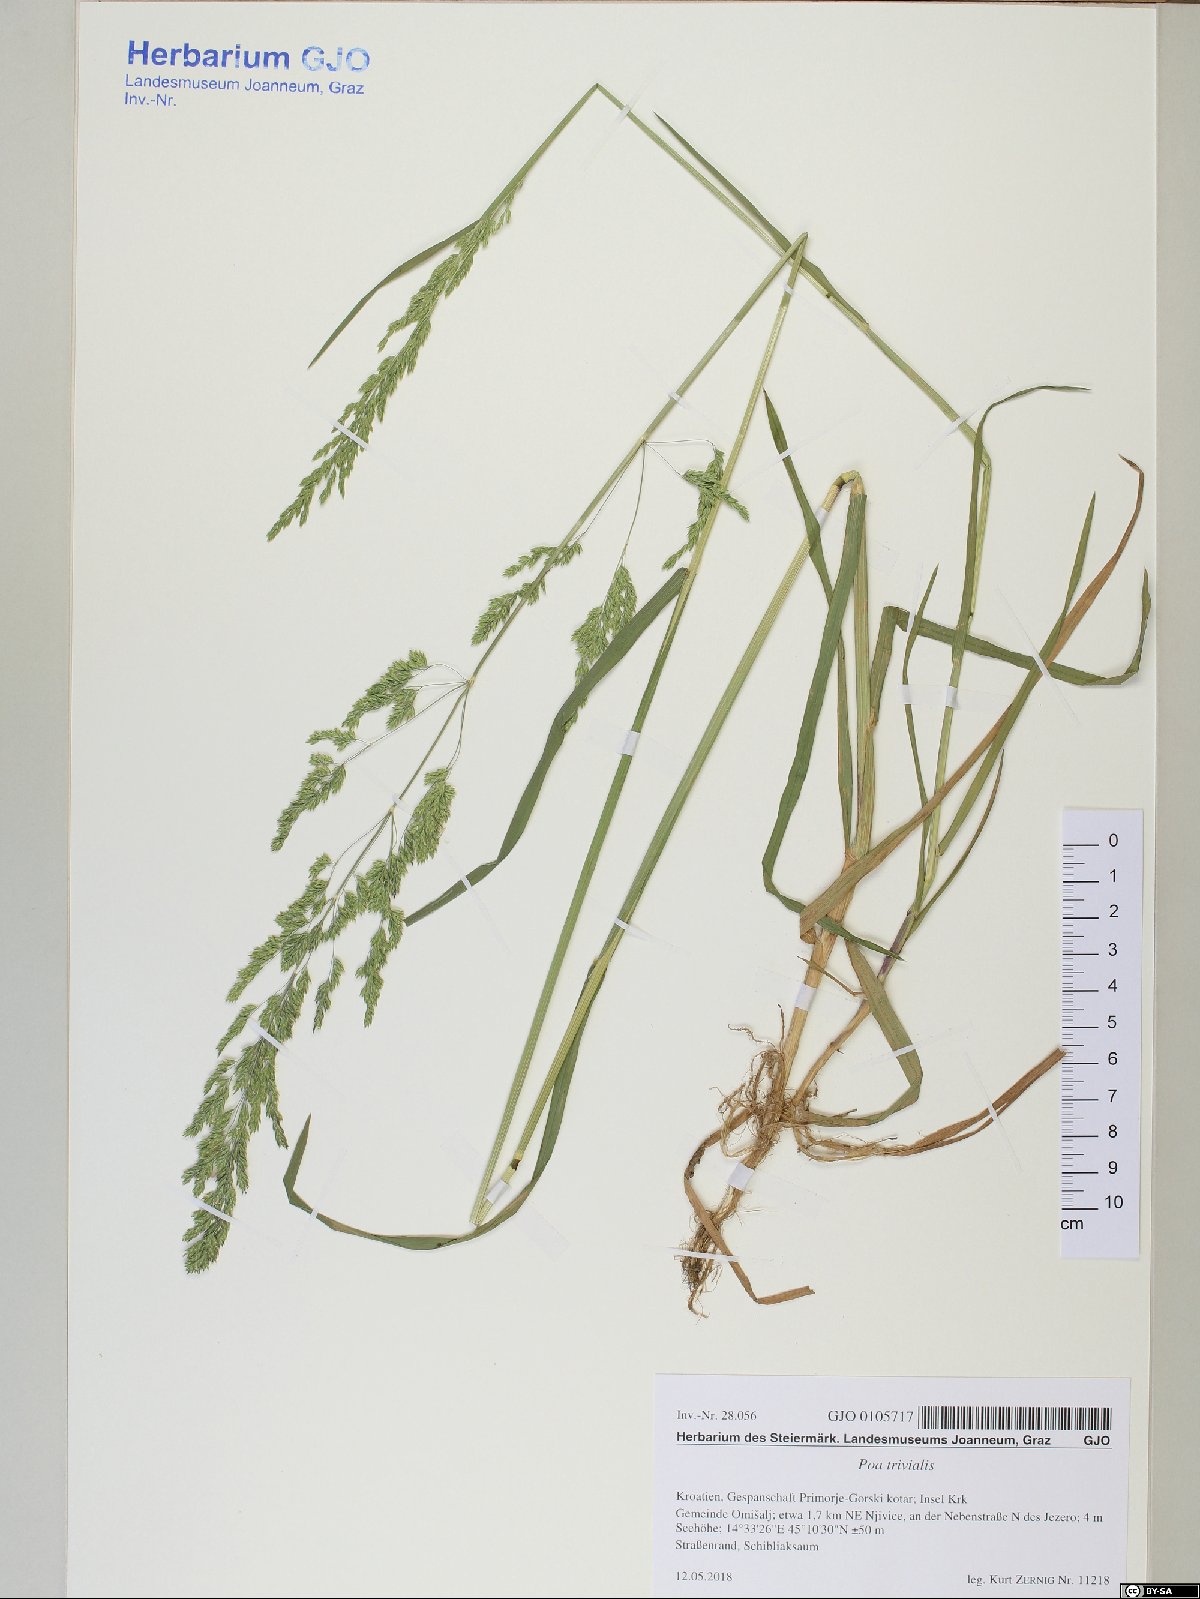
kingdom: Plantae
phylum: Tracheophyta
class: Liliopsida
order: Poales
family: Poaceae
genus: Poa
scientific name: Poa trivialis
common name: Rough bluegrass
